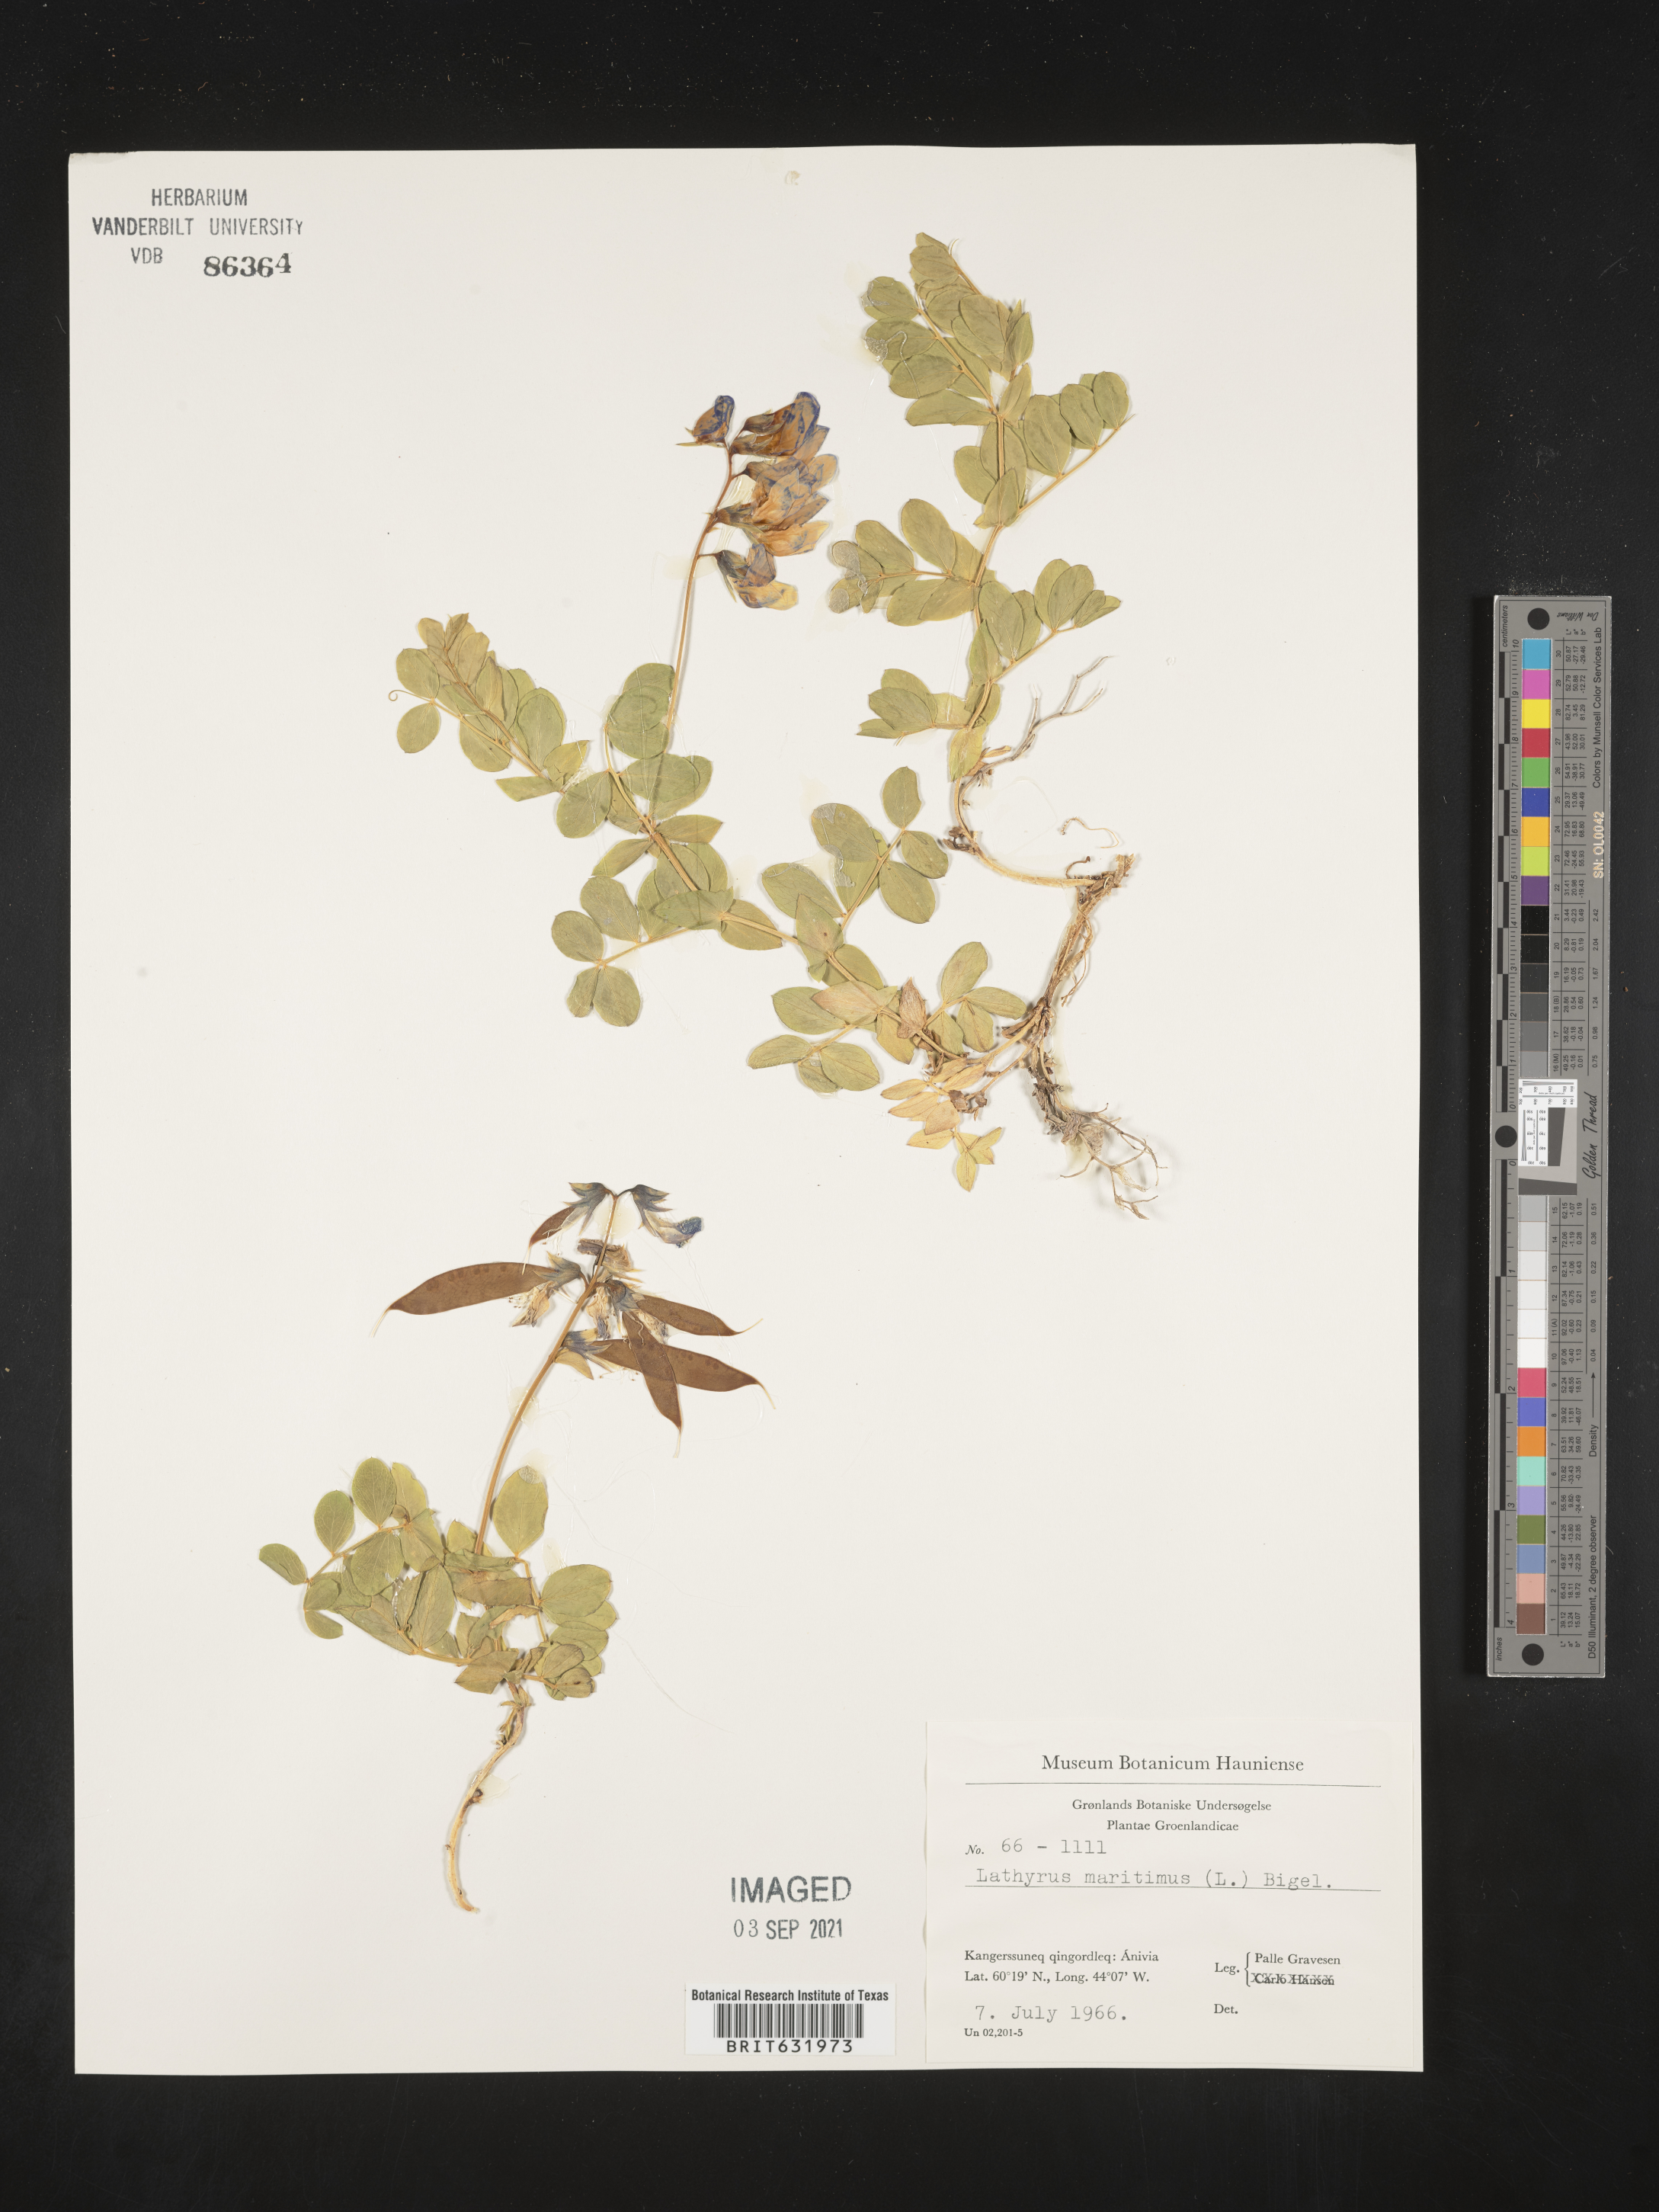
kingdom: Plantae
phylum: Tracheophyta
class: Magnoliopsida
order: Fabales
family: Fabaceae
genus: Lathyrus
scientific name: Lathyrus
